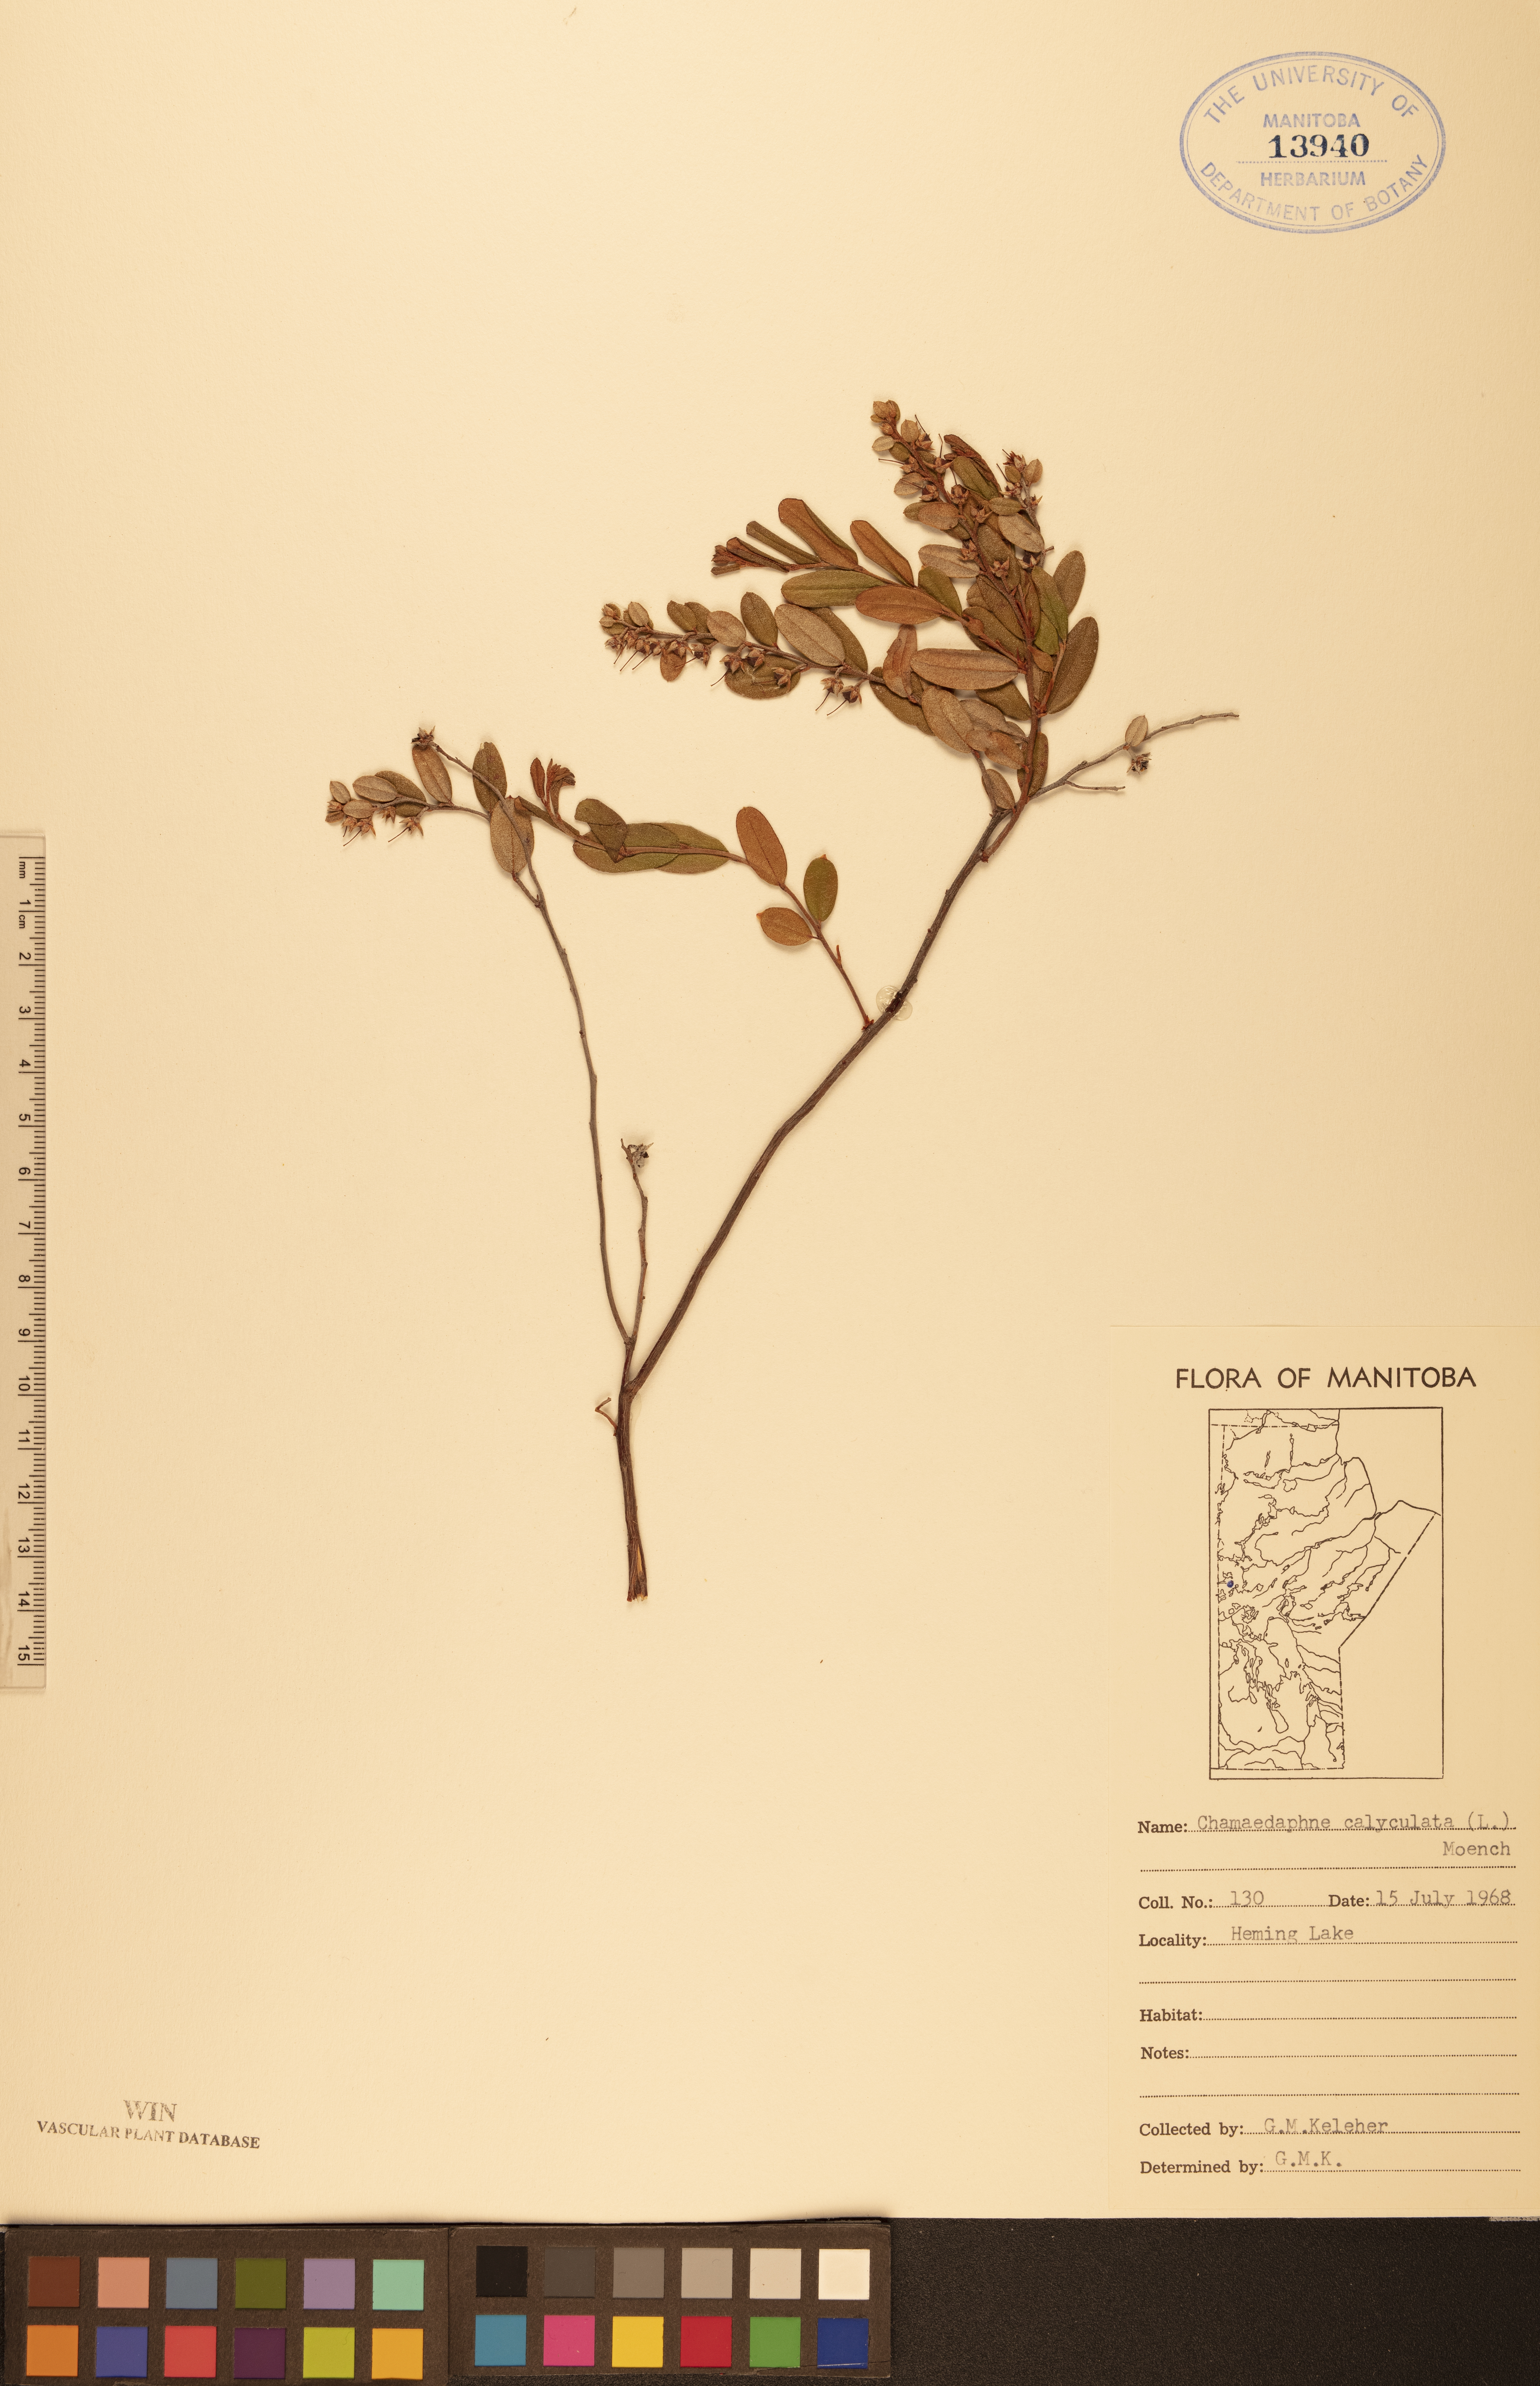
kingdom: Plantae
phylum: Tracheophyta
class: Magnoliopsida
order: Ericales
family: Ericaceae
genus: Chamaedaphne
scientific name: Chamaedaphne calyculata
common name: Leatherleaf
